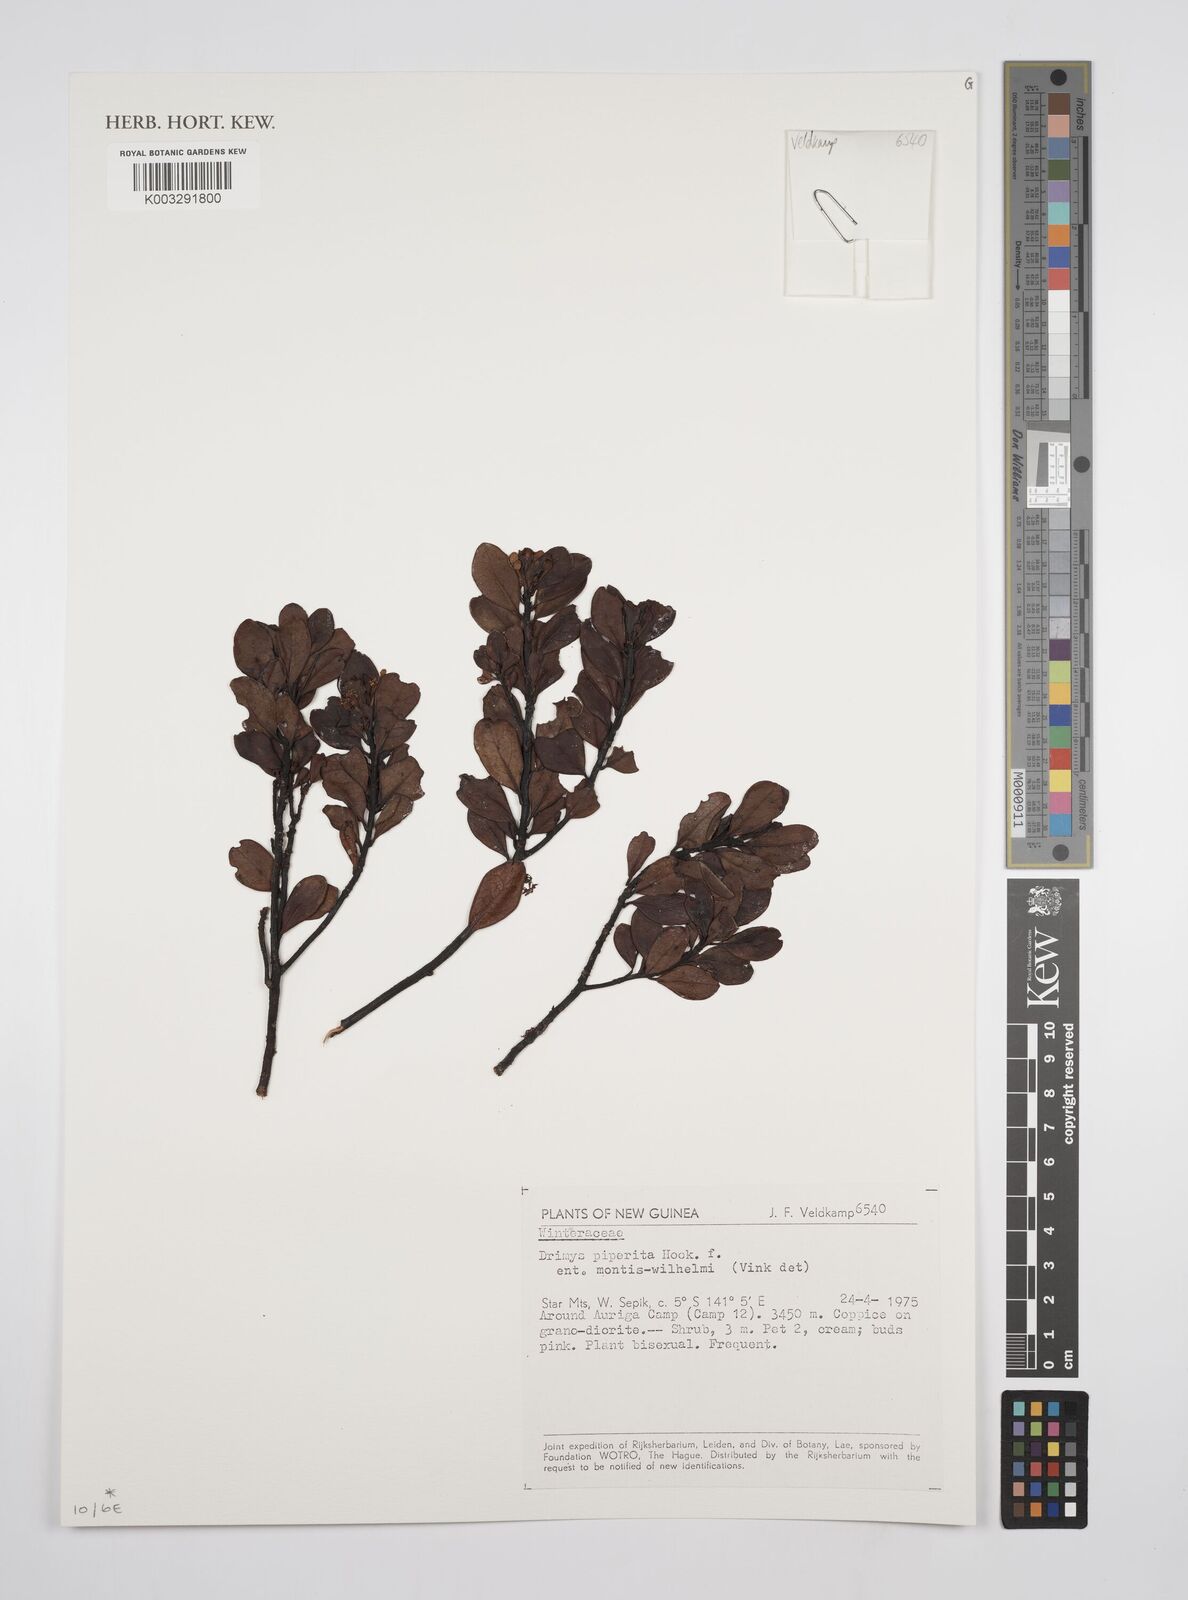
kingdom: Plantae
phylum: Tracheophyta
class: Magnoliopsida
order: Canellales
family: Winteraceae
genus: Drimys
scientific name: Drimys piperita
